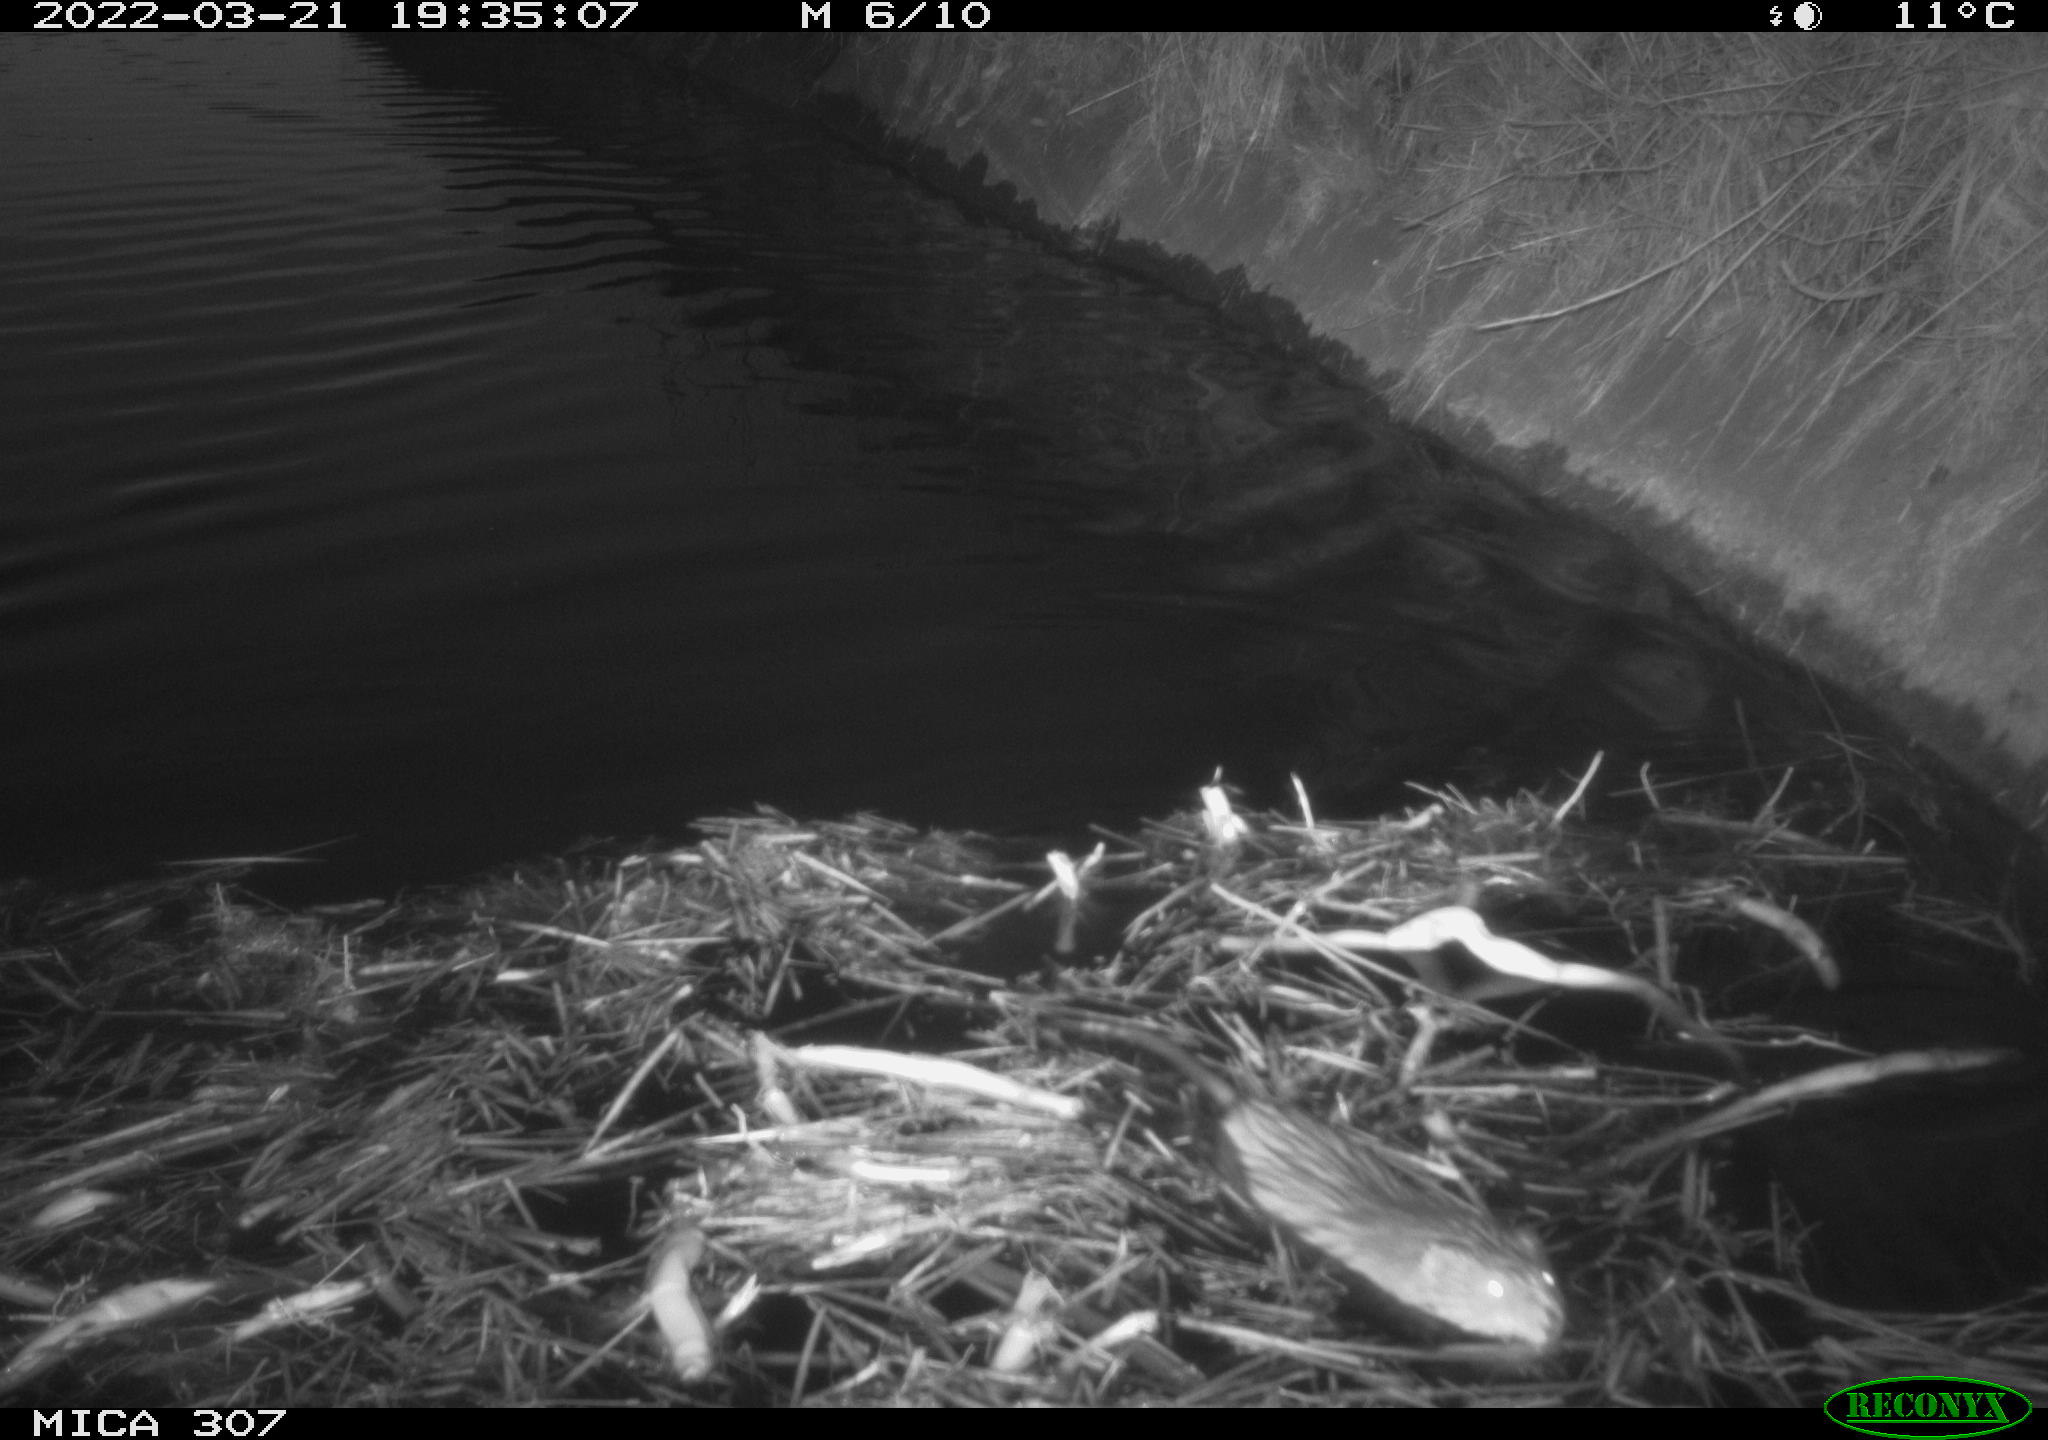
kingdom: Animalia
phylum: Chordata
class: Mammalia
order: Rodentia
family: Cricetidae
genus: Ondatra
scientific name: Ondatra zibethicus
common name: Muskrat
